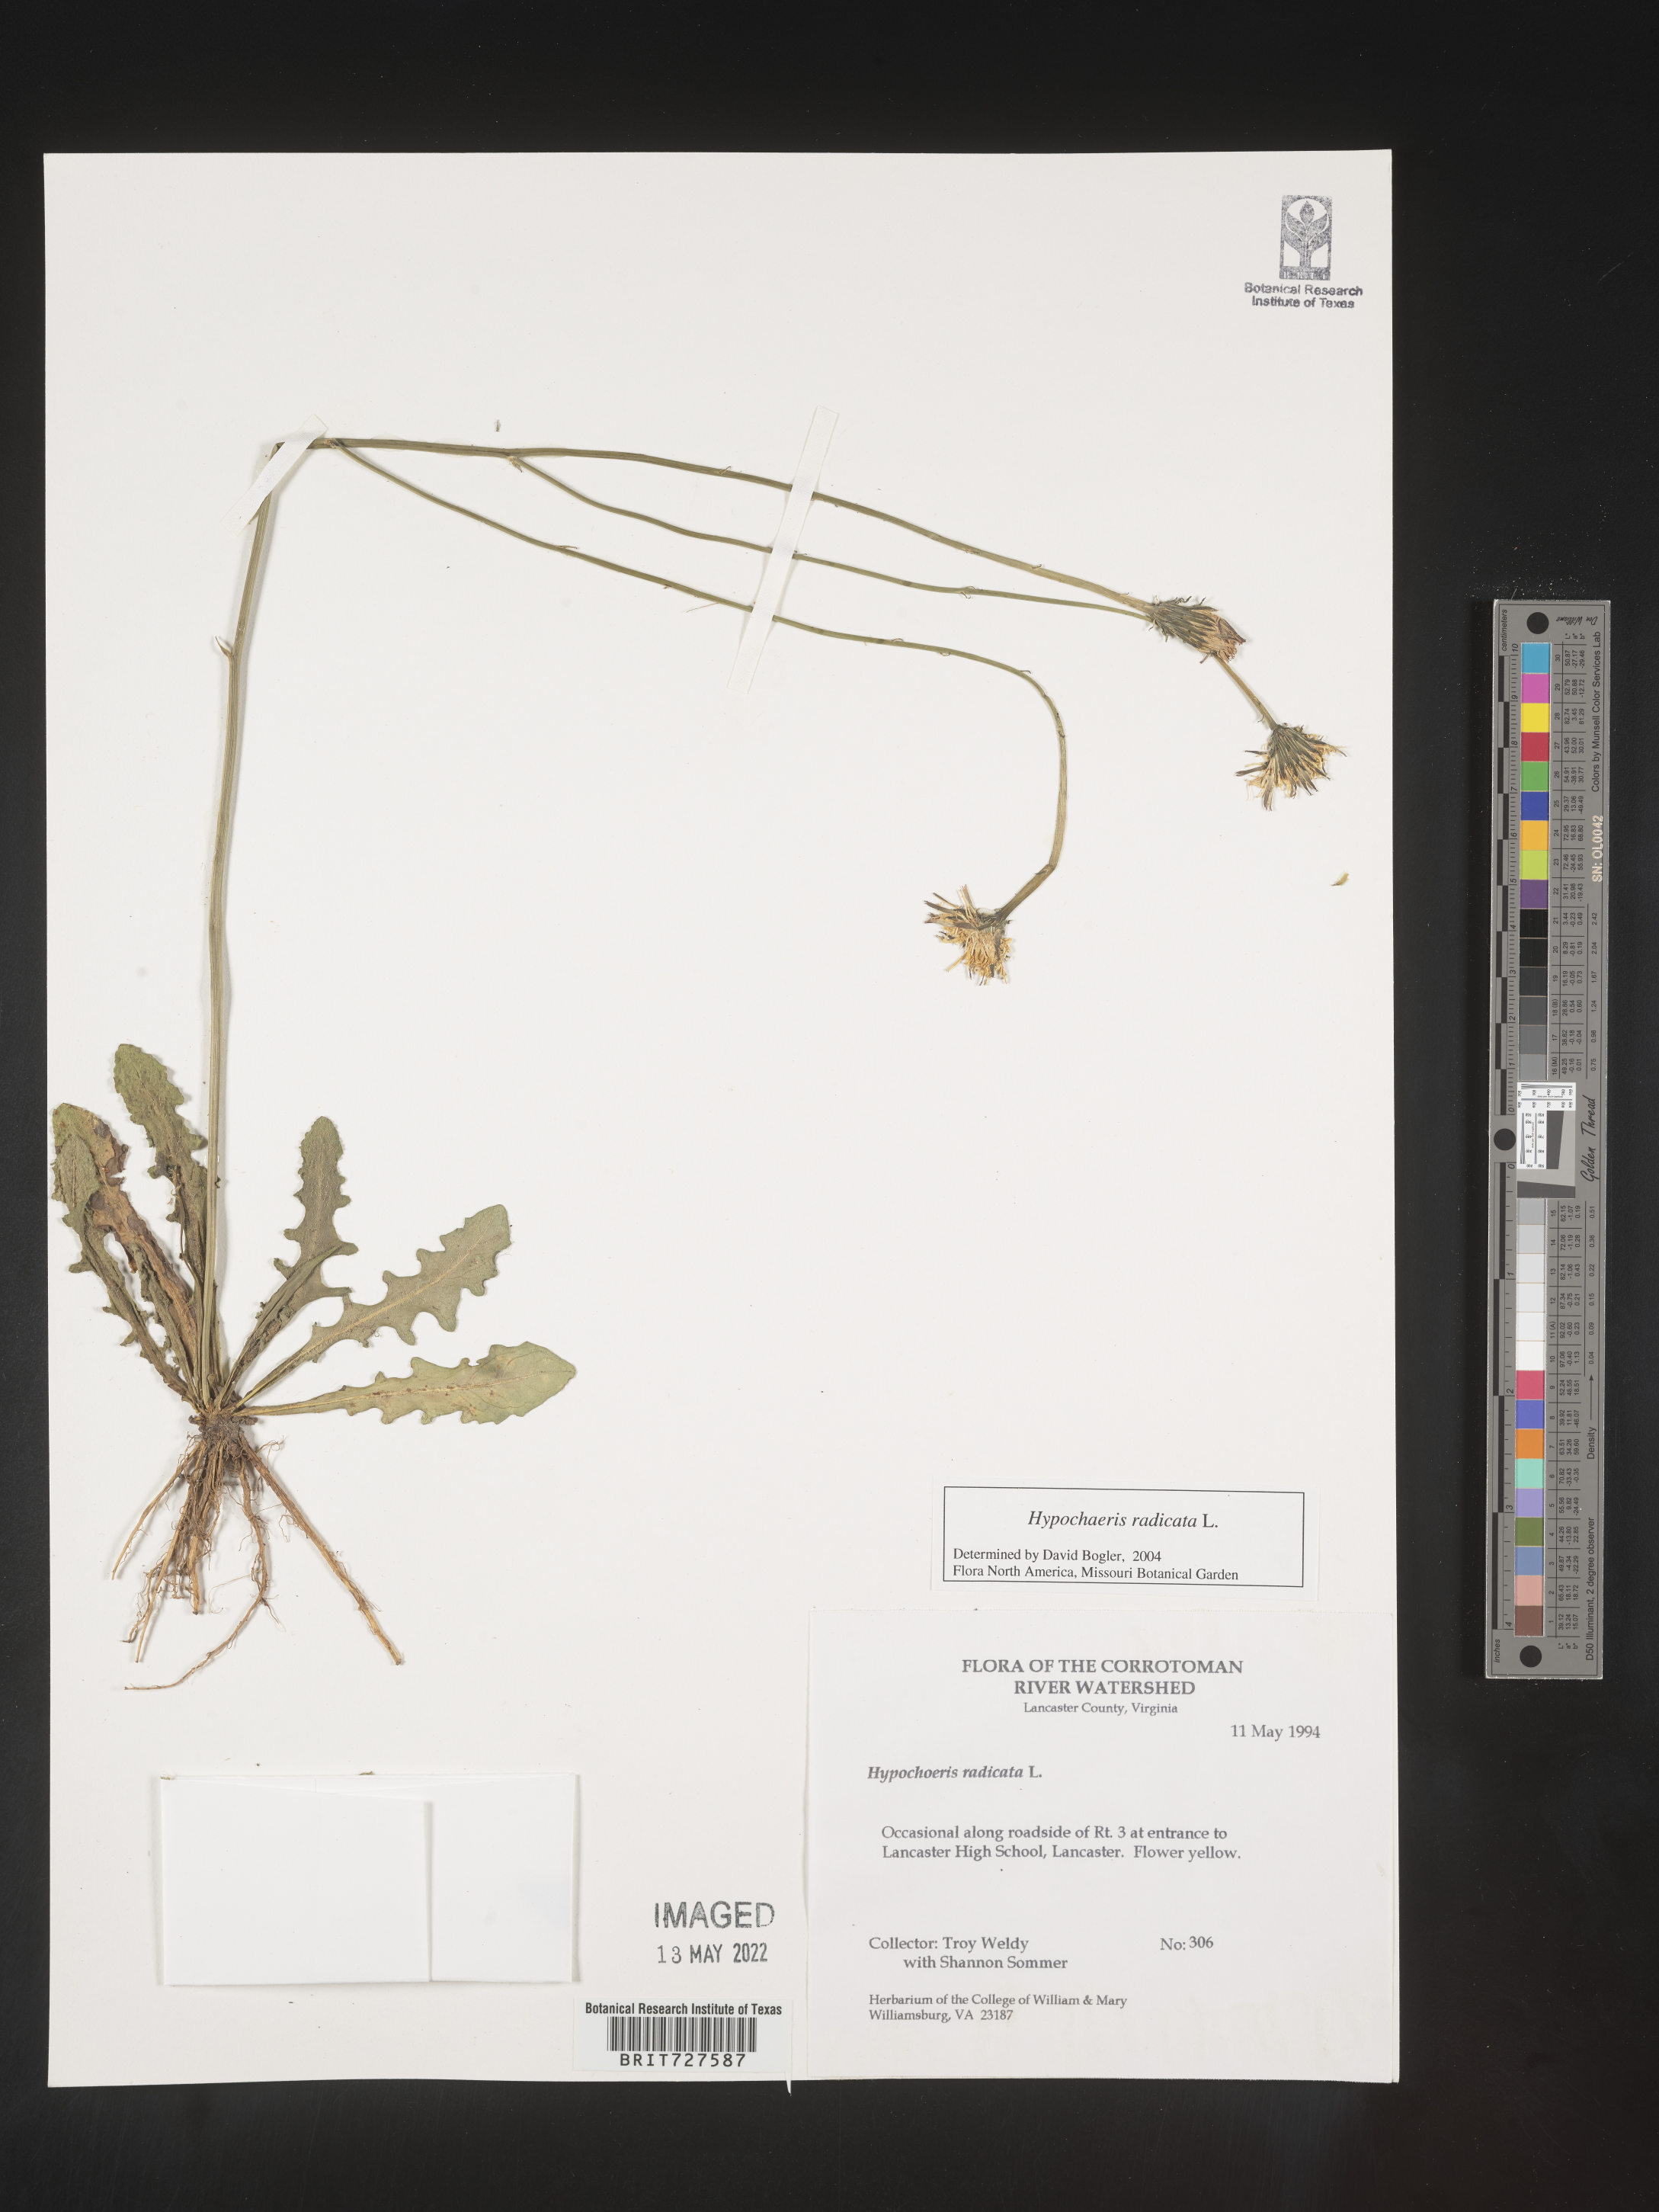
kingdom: Plantae
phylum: Tracheophyta
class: Magnoliopsida
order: Asterales
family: Asteraceae
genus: Hypochaeris
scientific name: Hypochaeris radicata
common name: Flatweed
